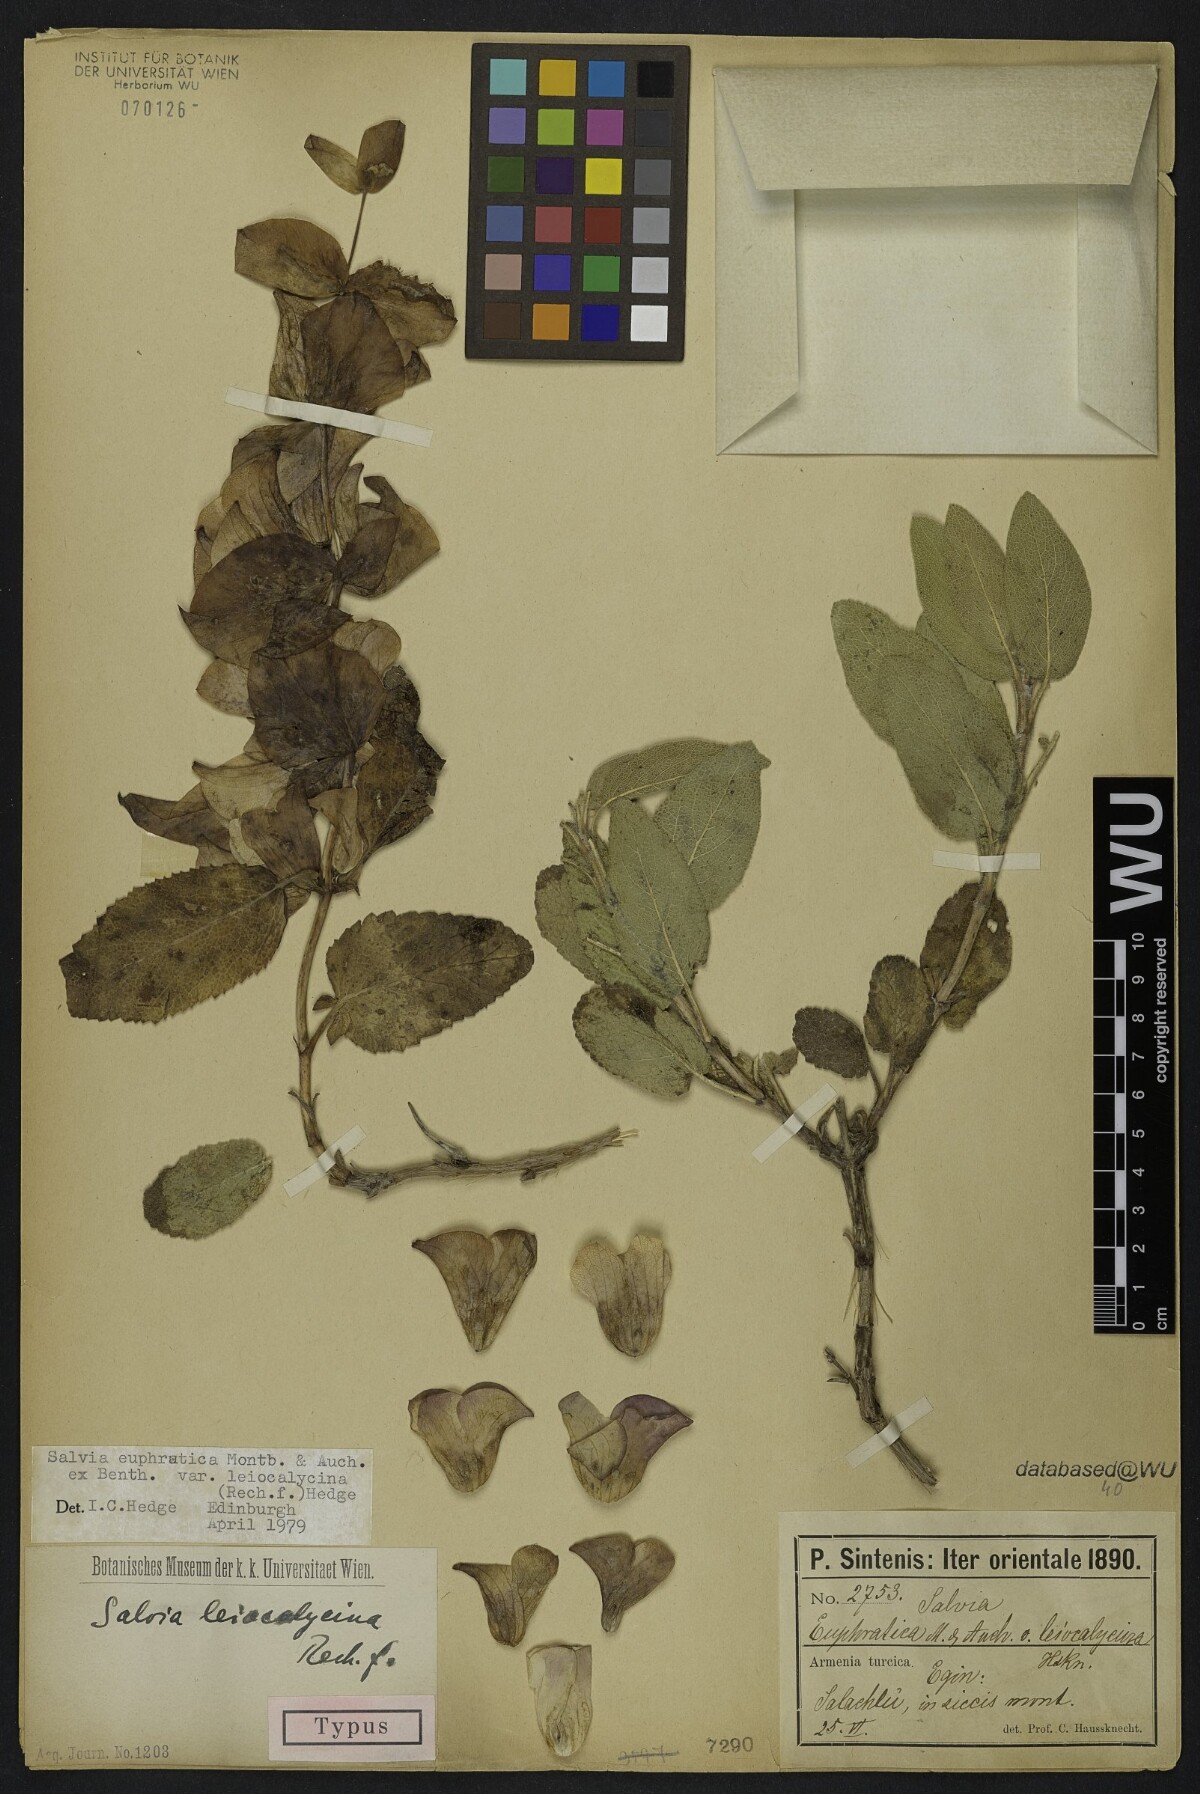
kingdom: Plantae
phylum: Tracheophyta
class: Magnoliopsida
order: Lamiales
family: Lamiaceae
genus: Salvia
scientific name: Salvia euphratica
